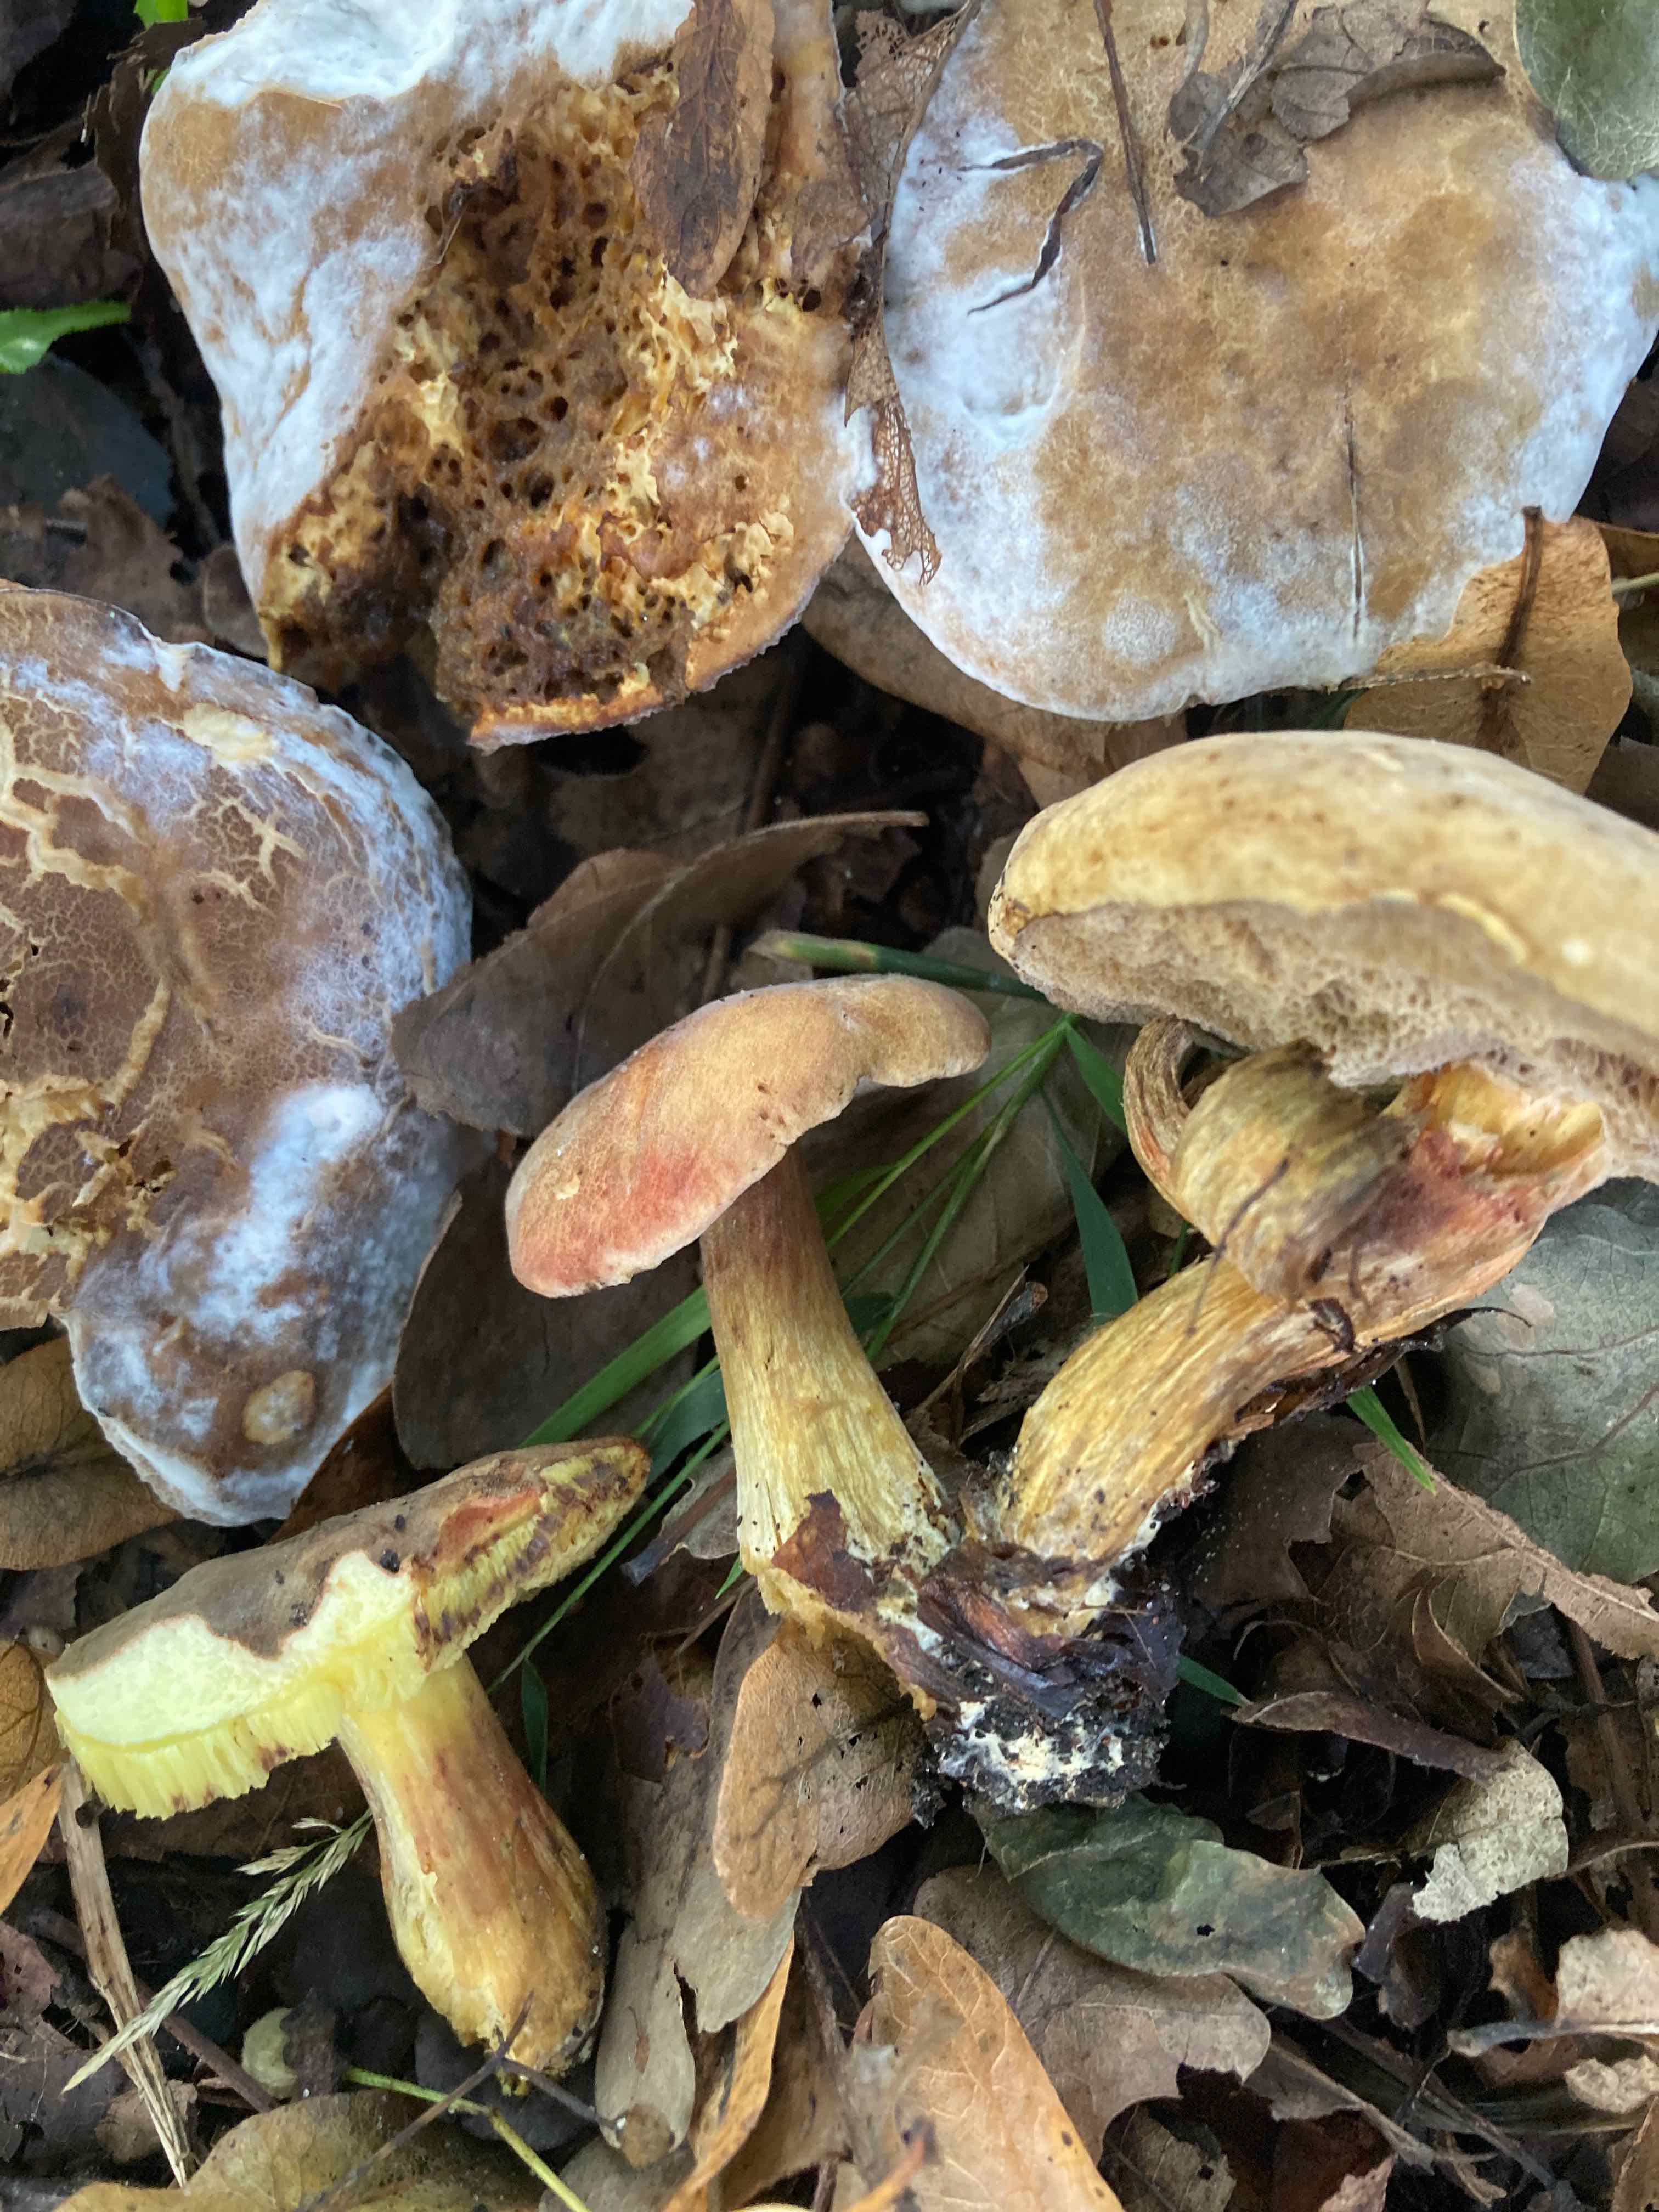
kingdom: Fungi
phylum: Basidiomycota
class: Agaricomycetes
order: Boletales
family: Boletaceae
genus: Hortiboletus
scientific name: Hortiboletus engelii
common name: fersken-rørhat
